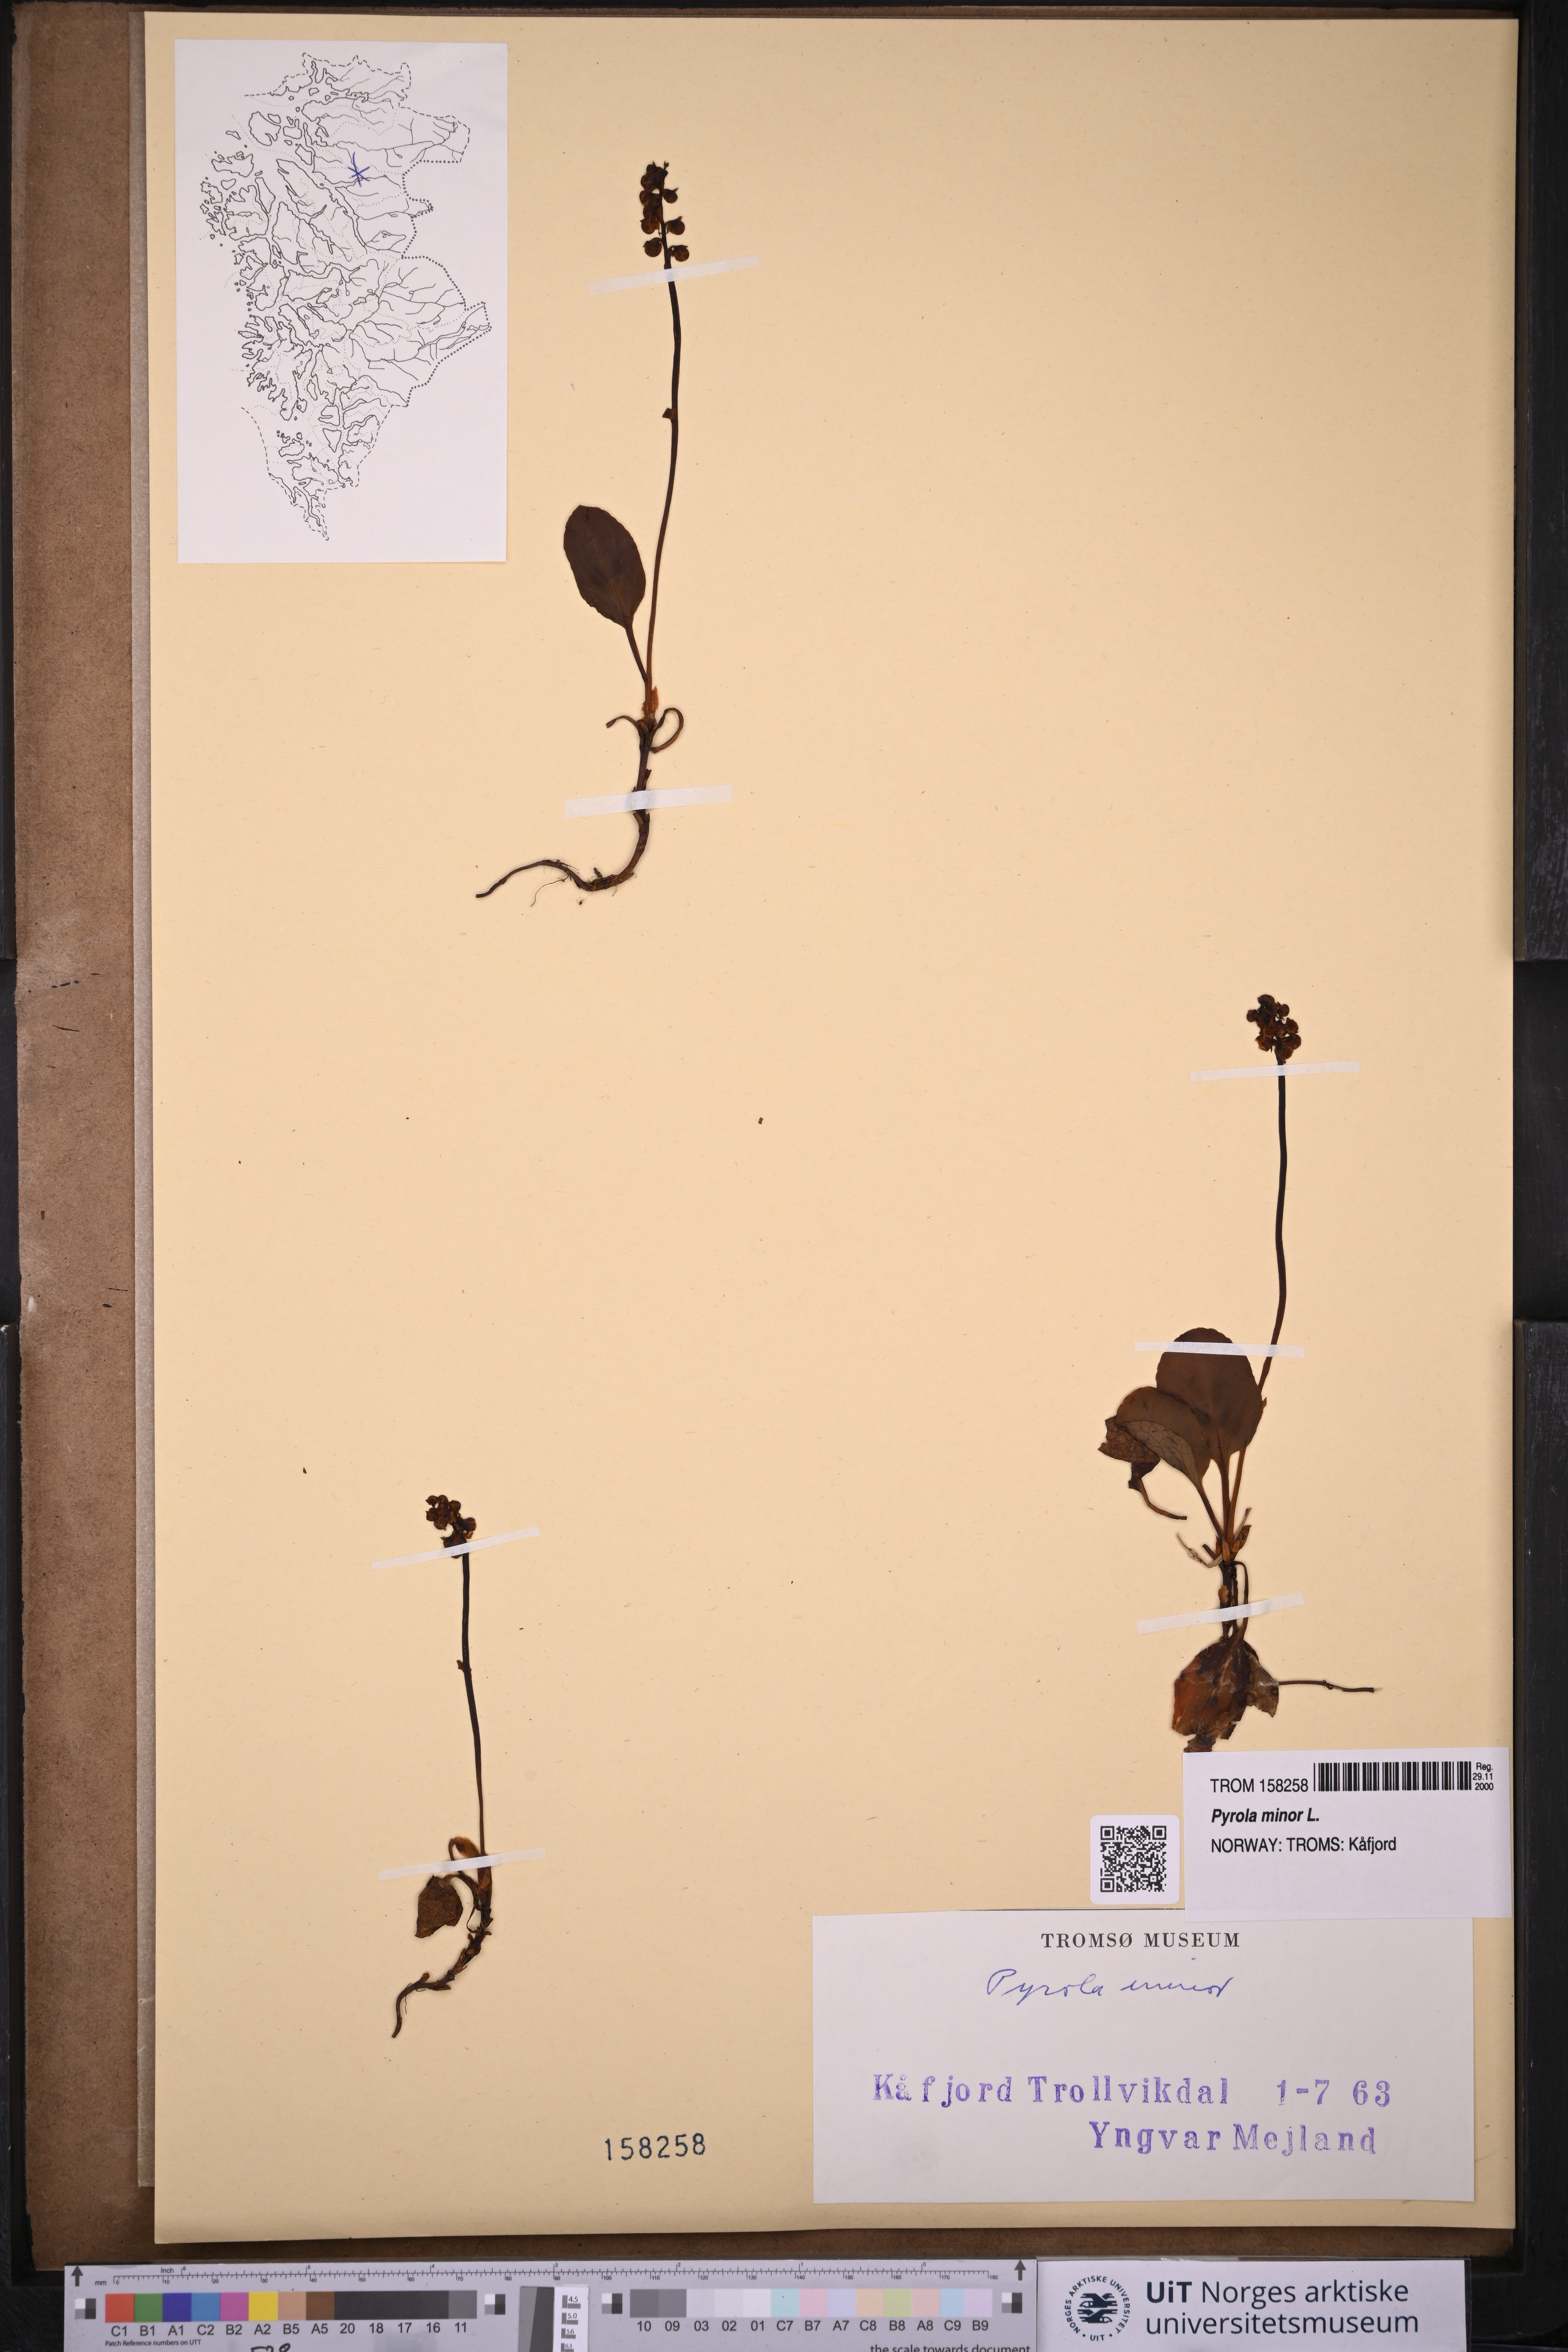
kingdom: Plantae
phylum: Tracheophyta
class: Magnoliopsida
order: Ericales
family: Ericaceae
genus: Pyrola
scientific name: Pyrola minor
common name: Common wintergreen
